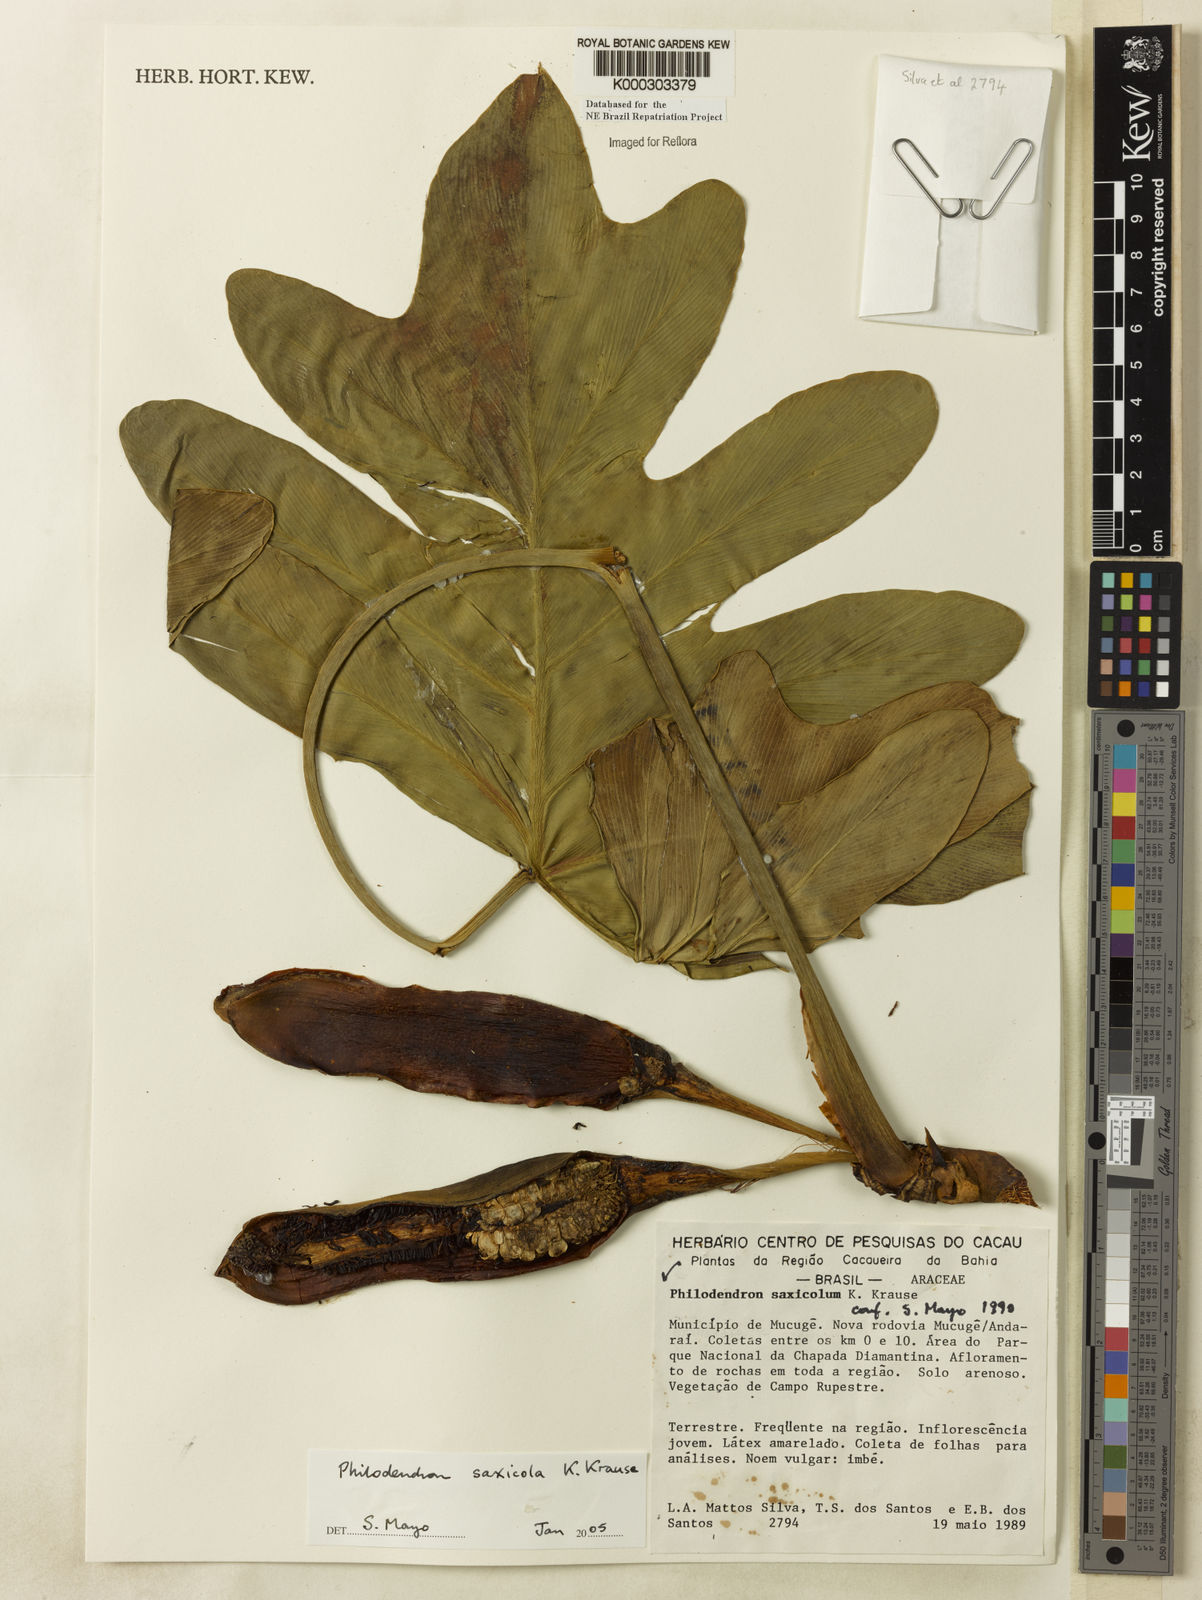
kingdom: Plantae
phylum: Tracheophyta
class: Liliopsida
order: Alismatales
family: Araceae
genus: Thaumatophyllum
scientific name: Thaumatophyllum saxicola
